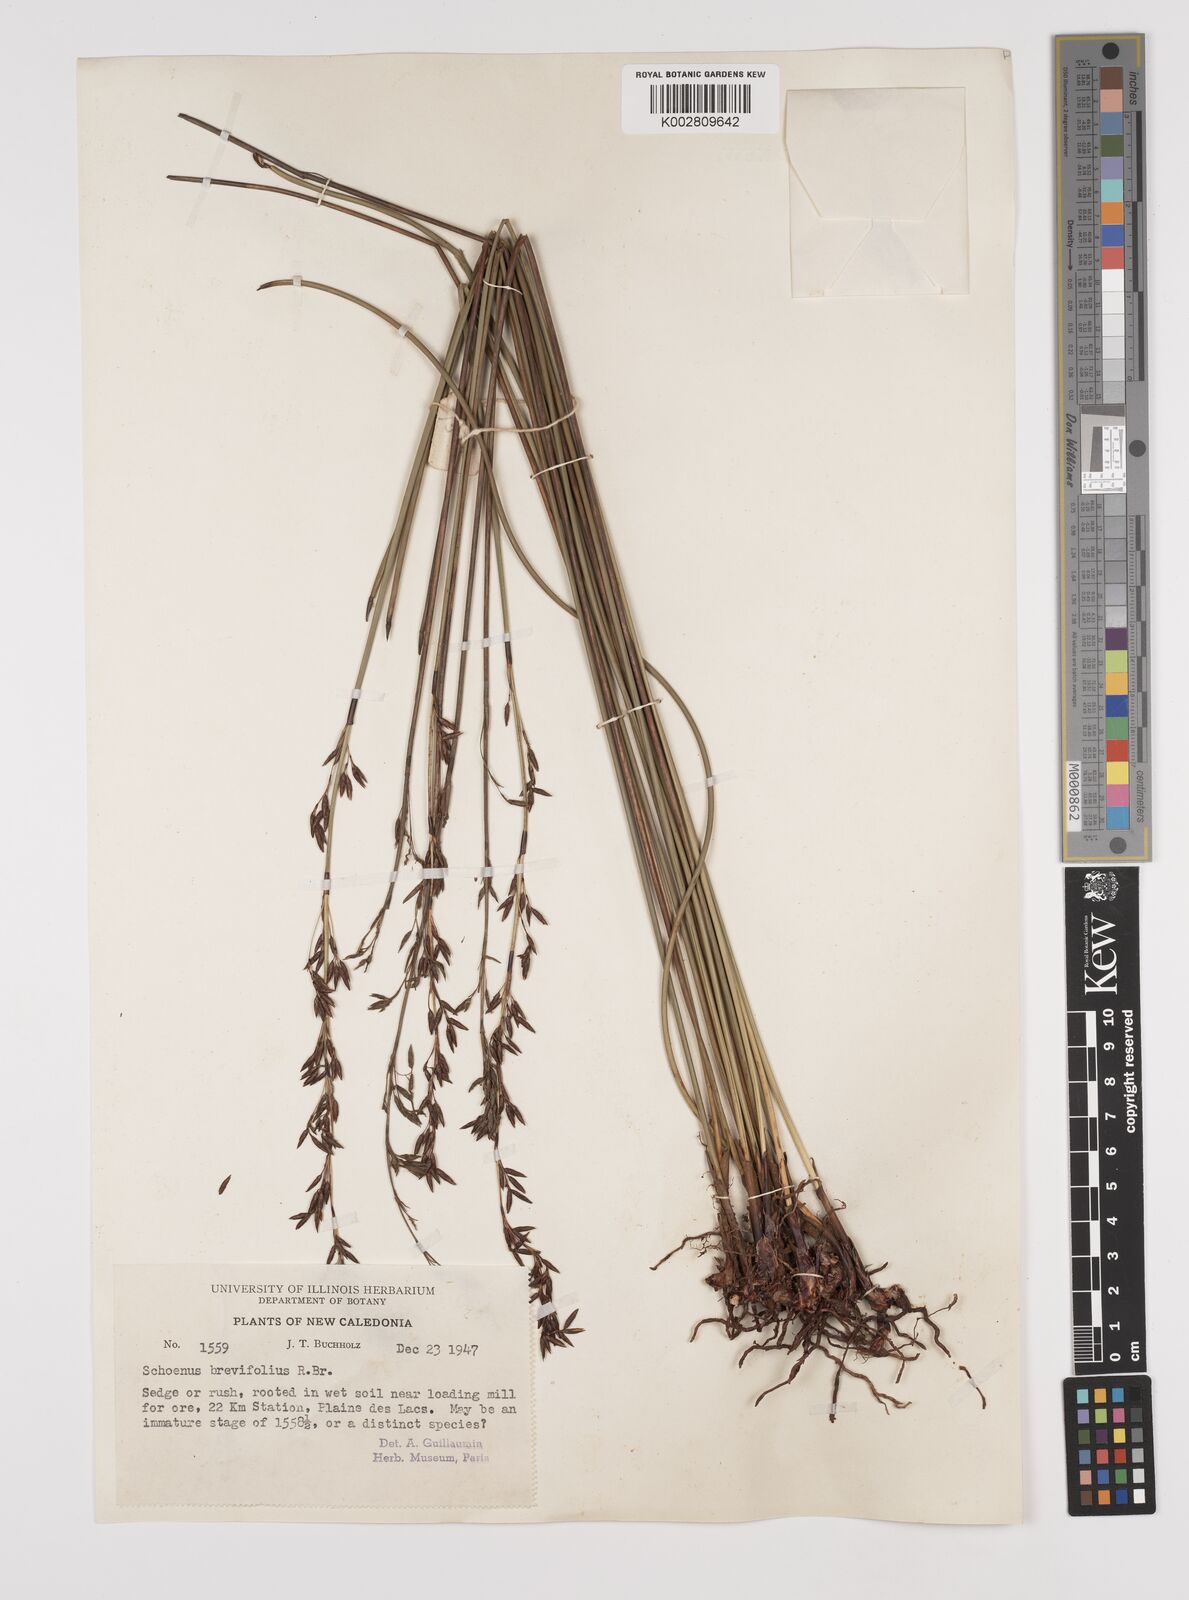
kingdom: Plantae
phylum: Tracheophyta
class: Liliopsida
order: Poales
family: Cyperaceae
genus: Schoenus
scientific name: Schoenus brevifolius
